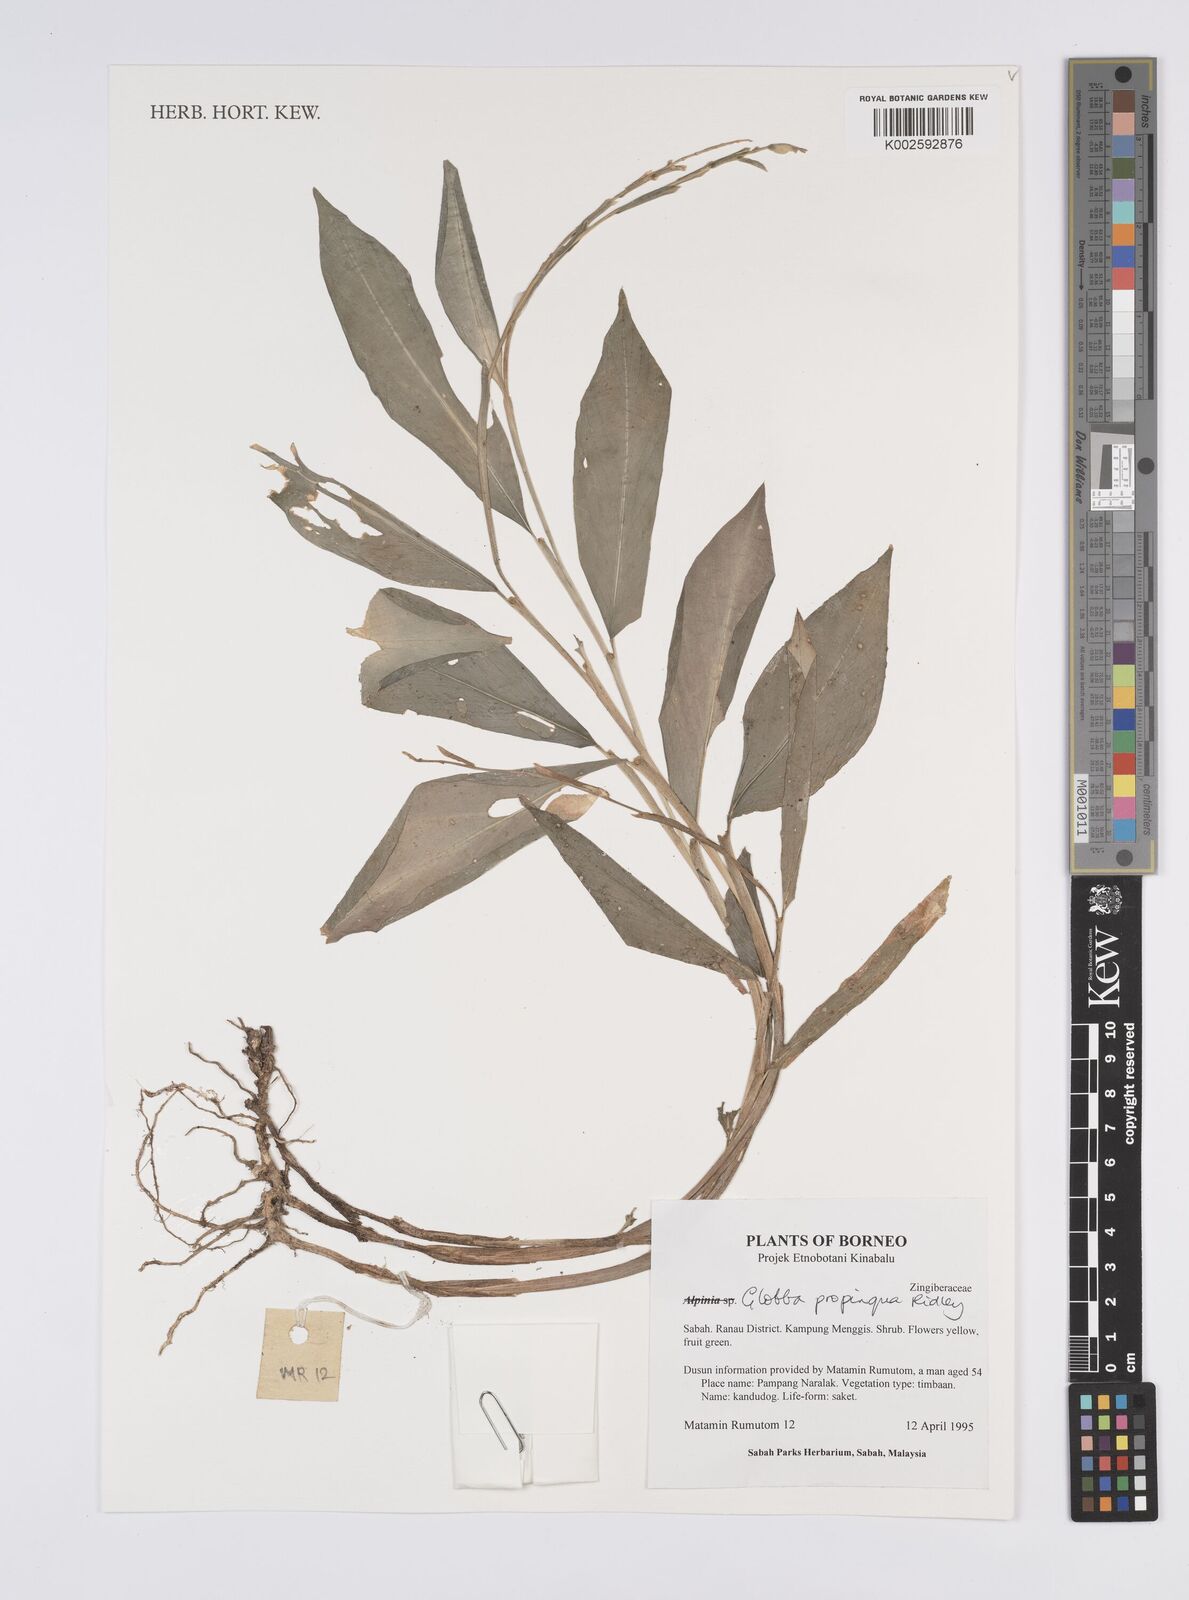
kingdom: Plantae
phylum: Tracheophyta
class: Liliopsida
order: Zingiberales
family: Zingiberaceae
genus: Globba
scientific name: Globba propinqua
